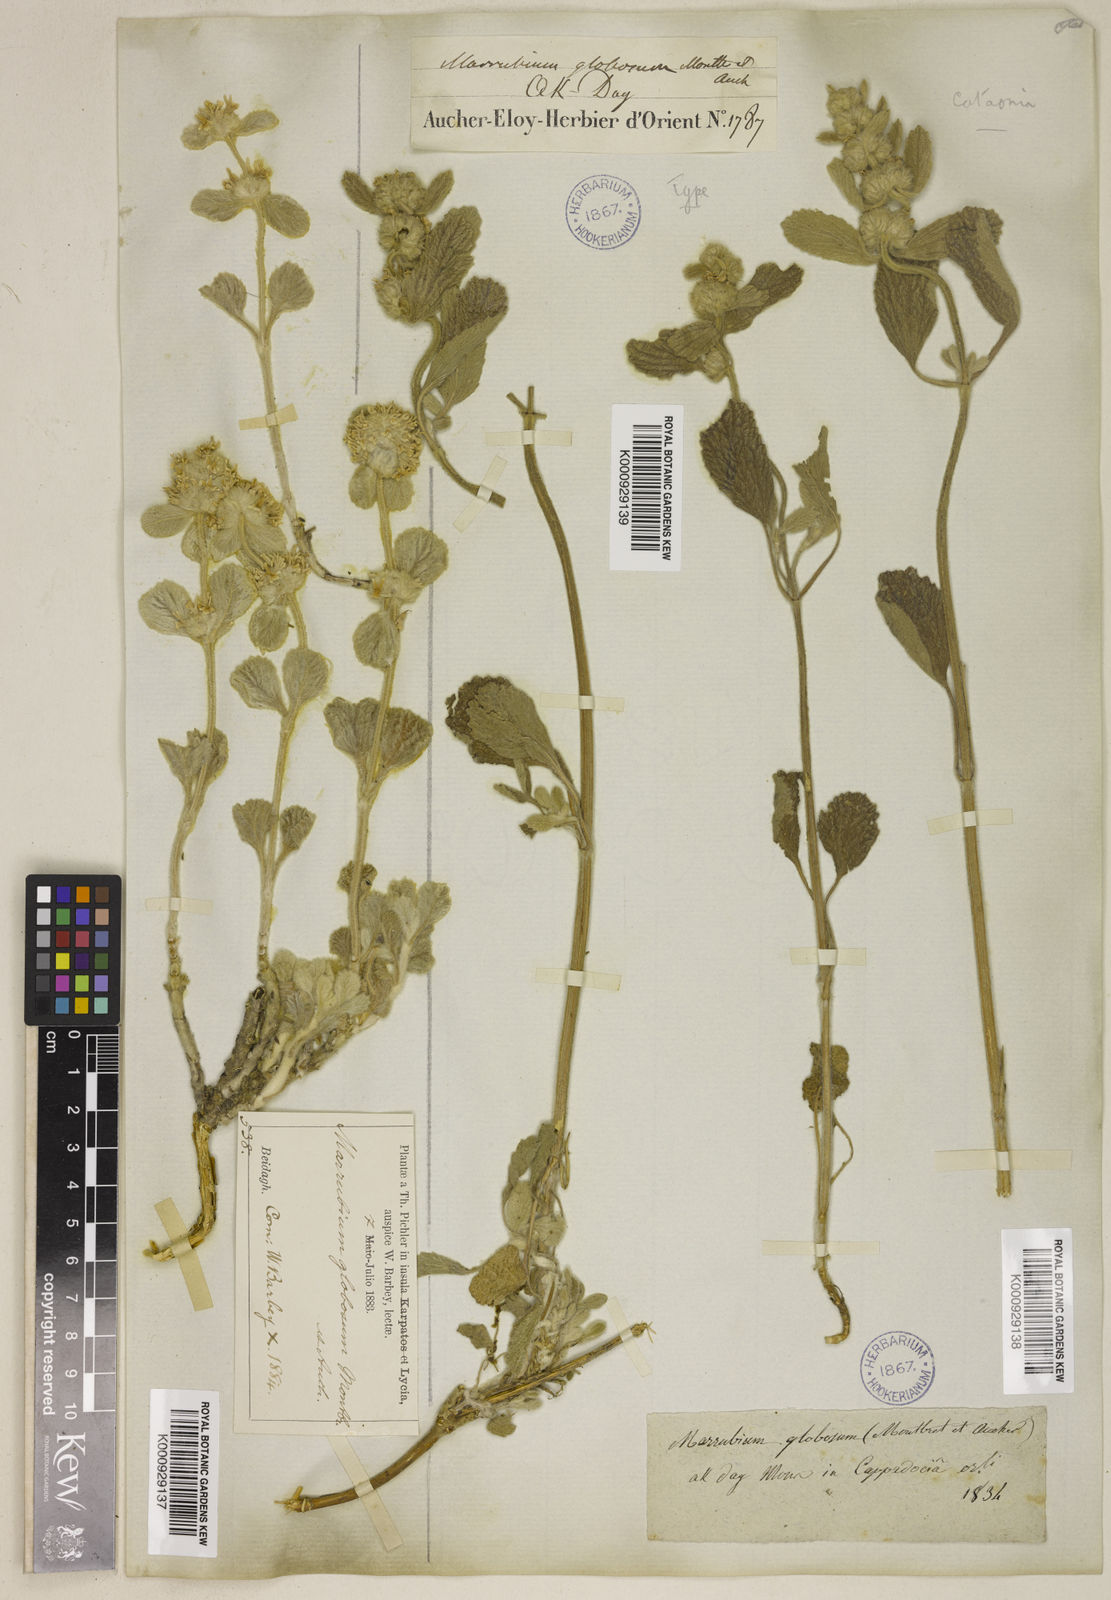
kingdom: Plantae
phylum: Tracheophyta
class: Magnoliopsida
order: Lamiales
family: Lamiaceae
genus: Marrubium
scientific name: Marrubium globosum
